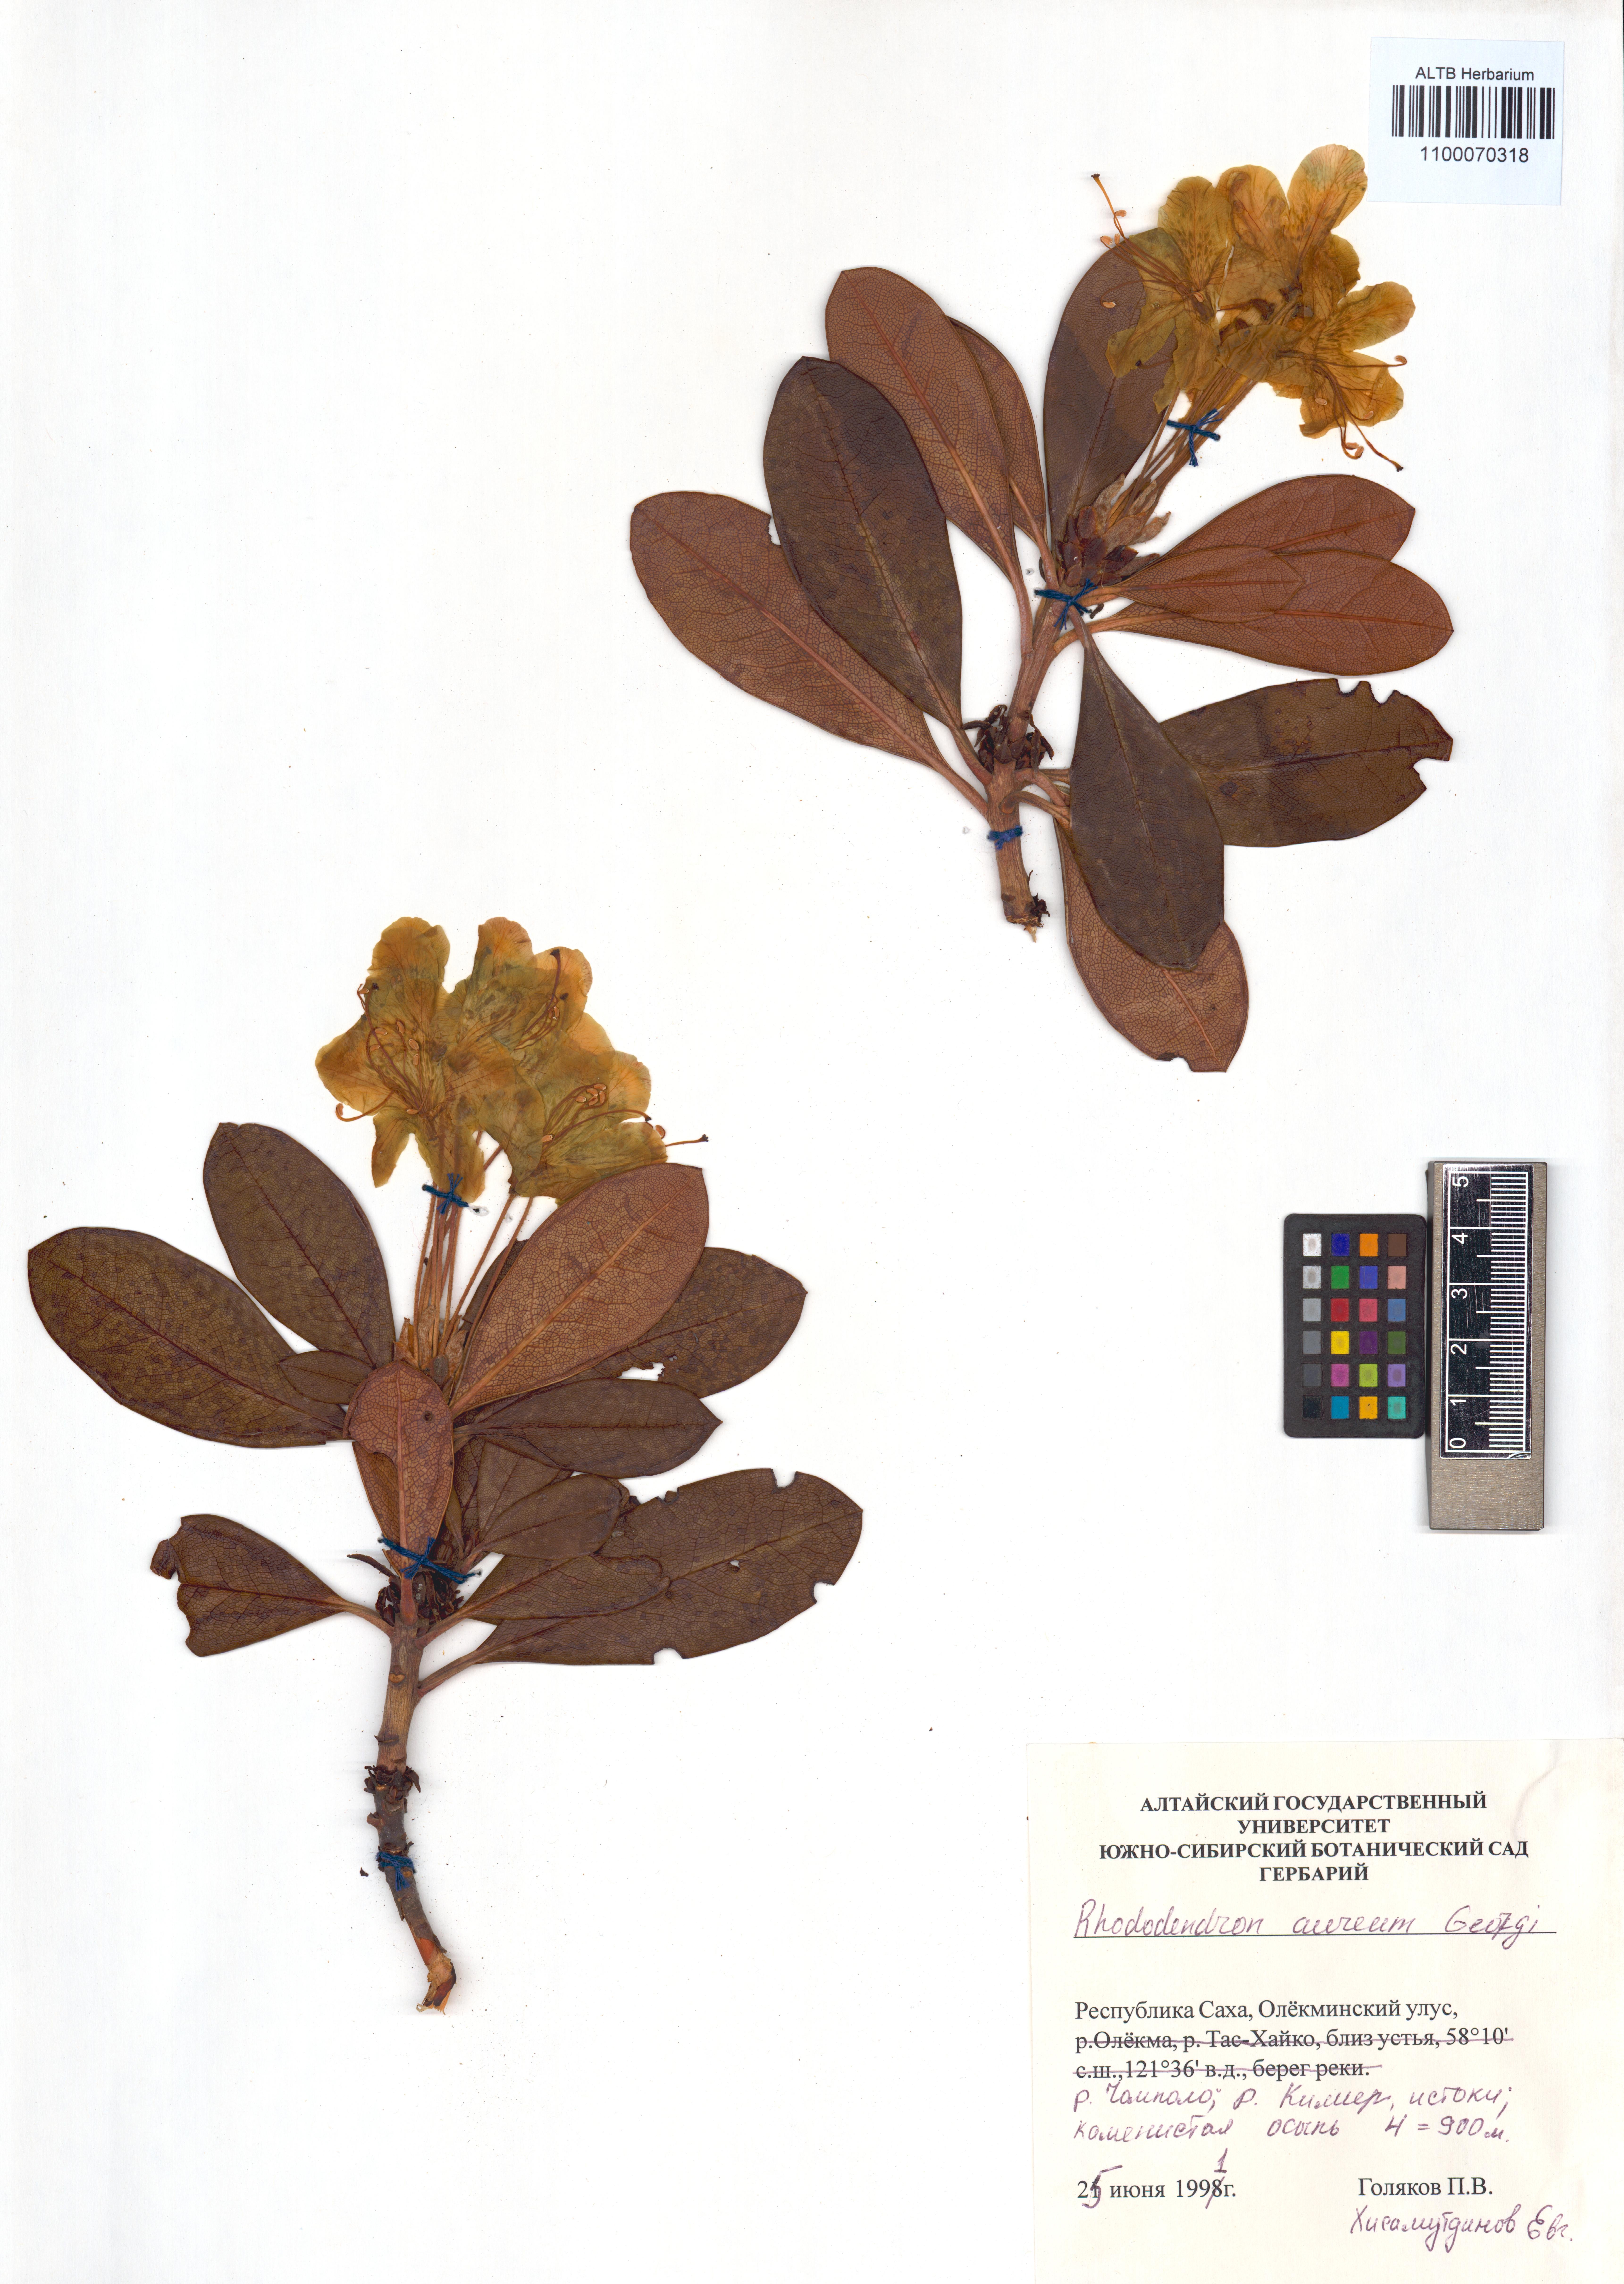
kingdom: Plantae
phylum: Tracheophyta
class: Magnoliopsida
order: Ericales
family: Ericaceae
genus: Rhododendron
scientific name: Rhododendron aureum
